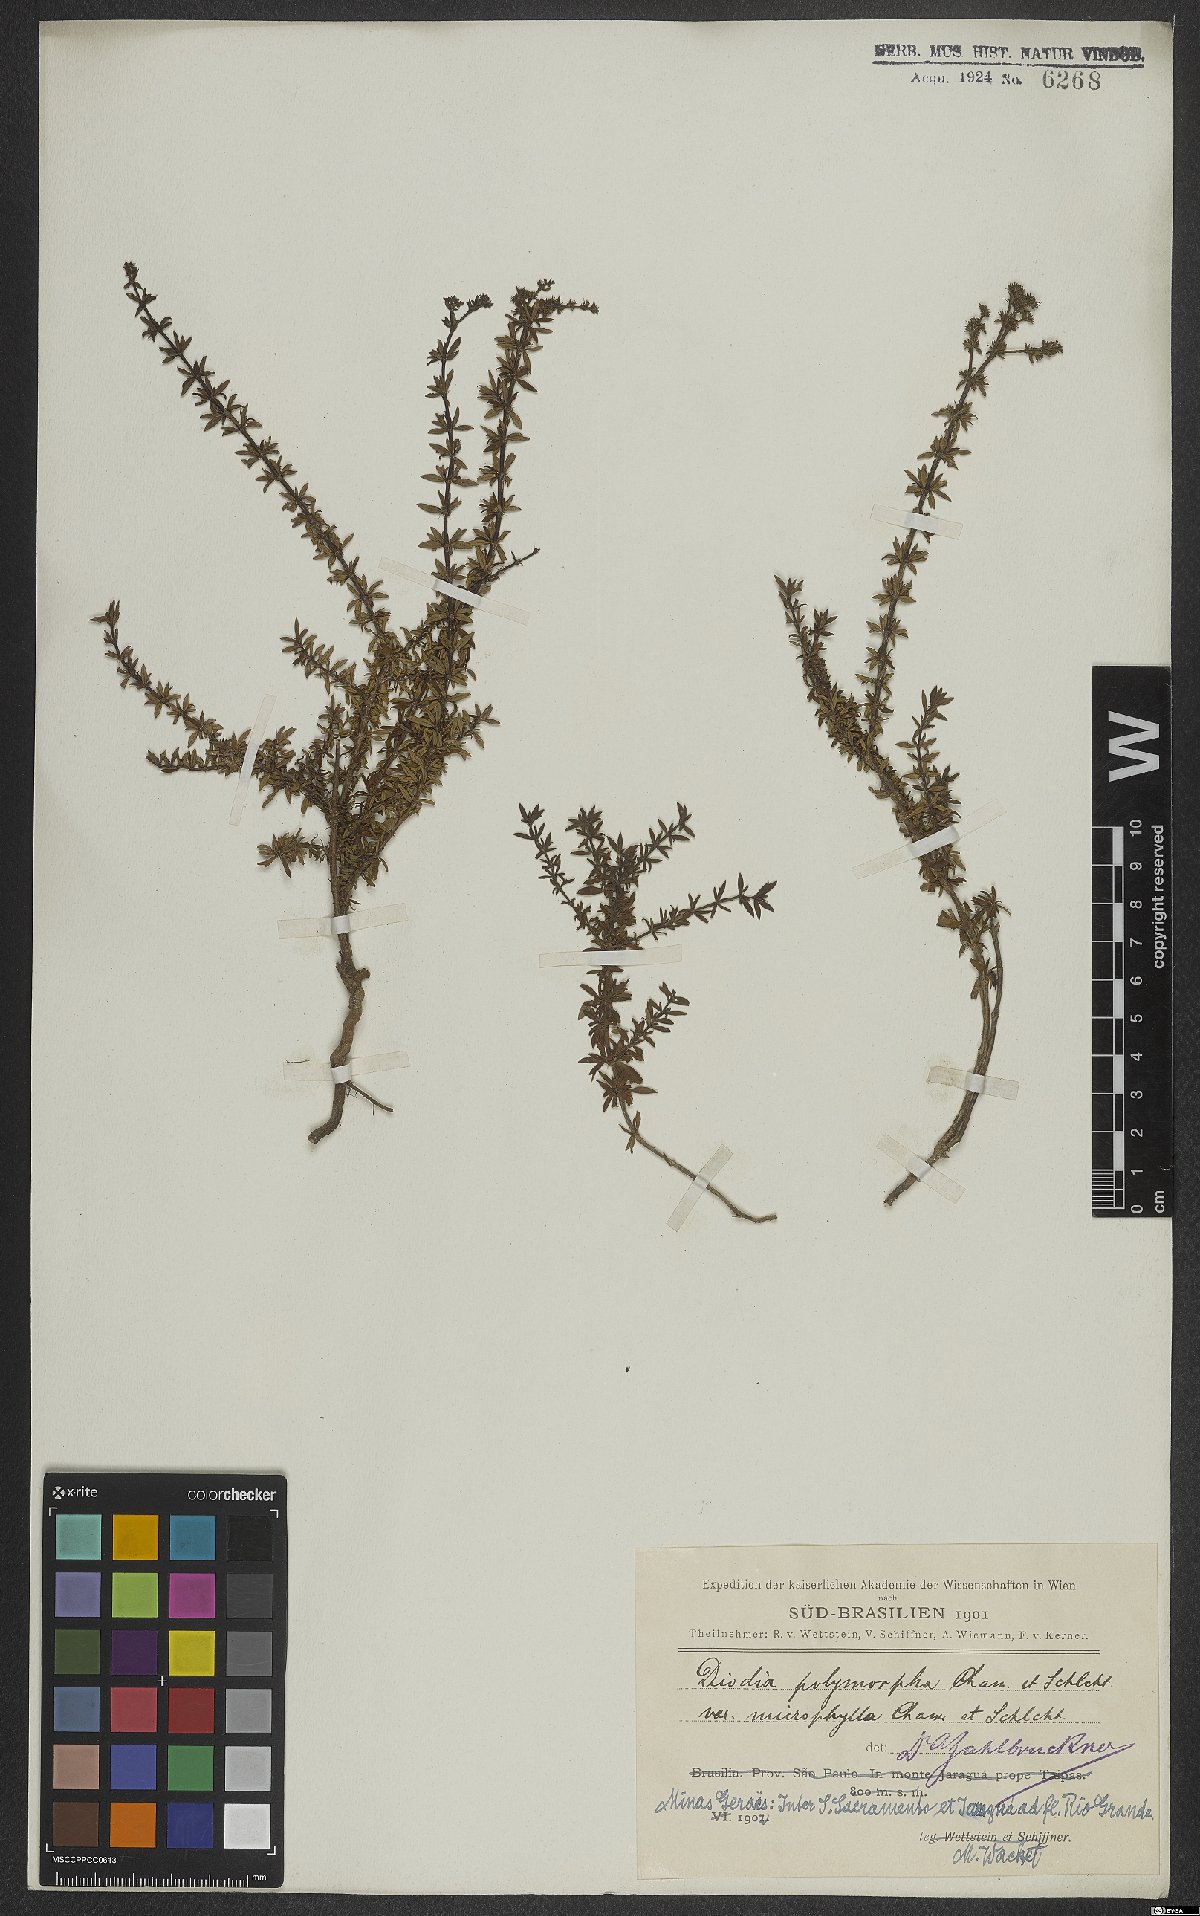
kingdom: Plantae
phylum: Tracheophyta
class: Magnoliopsida
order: Gentianales
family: Rubiaceae
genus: Galianthe
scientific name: Galianthe brasiliensis
